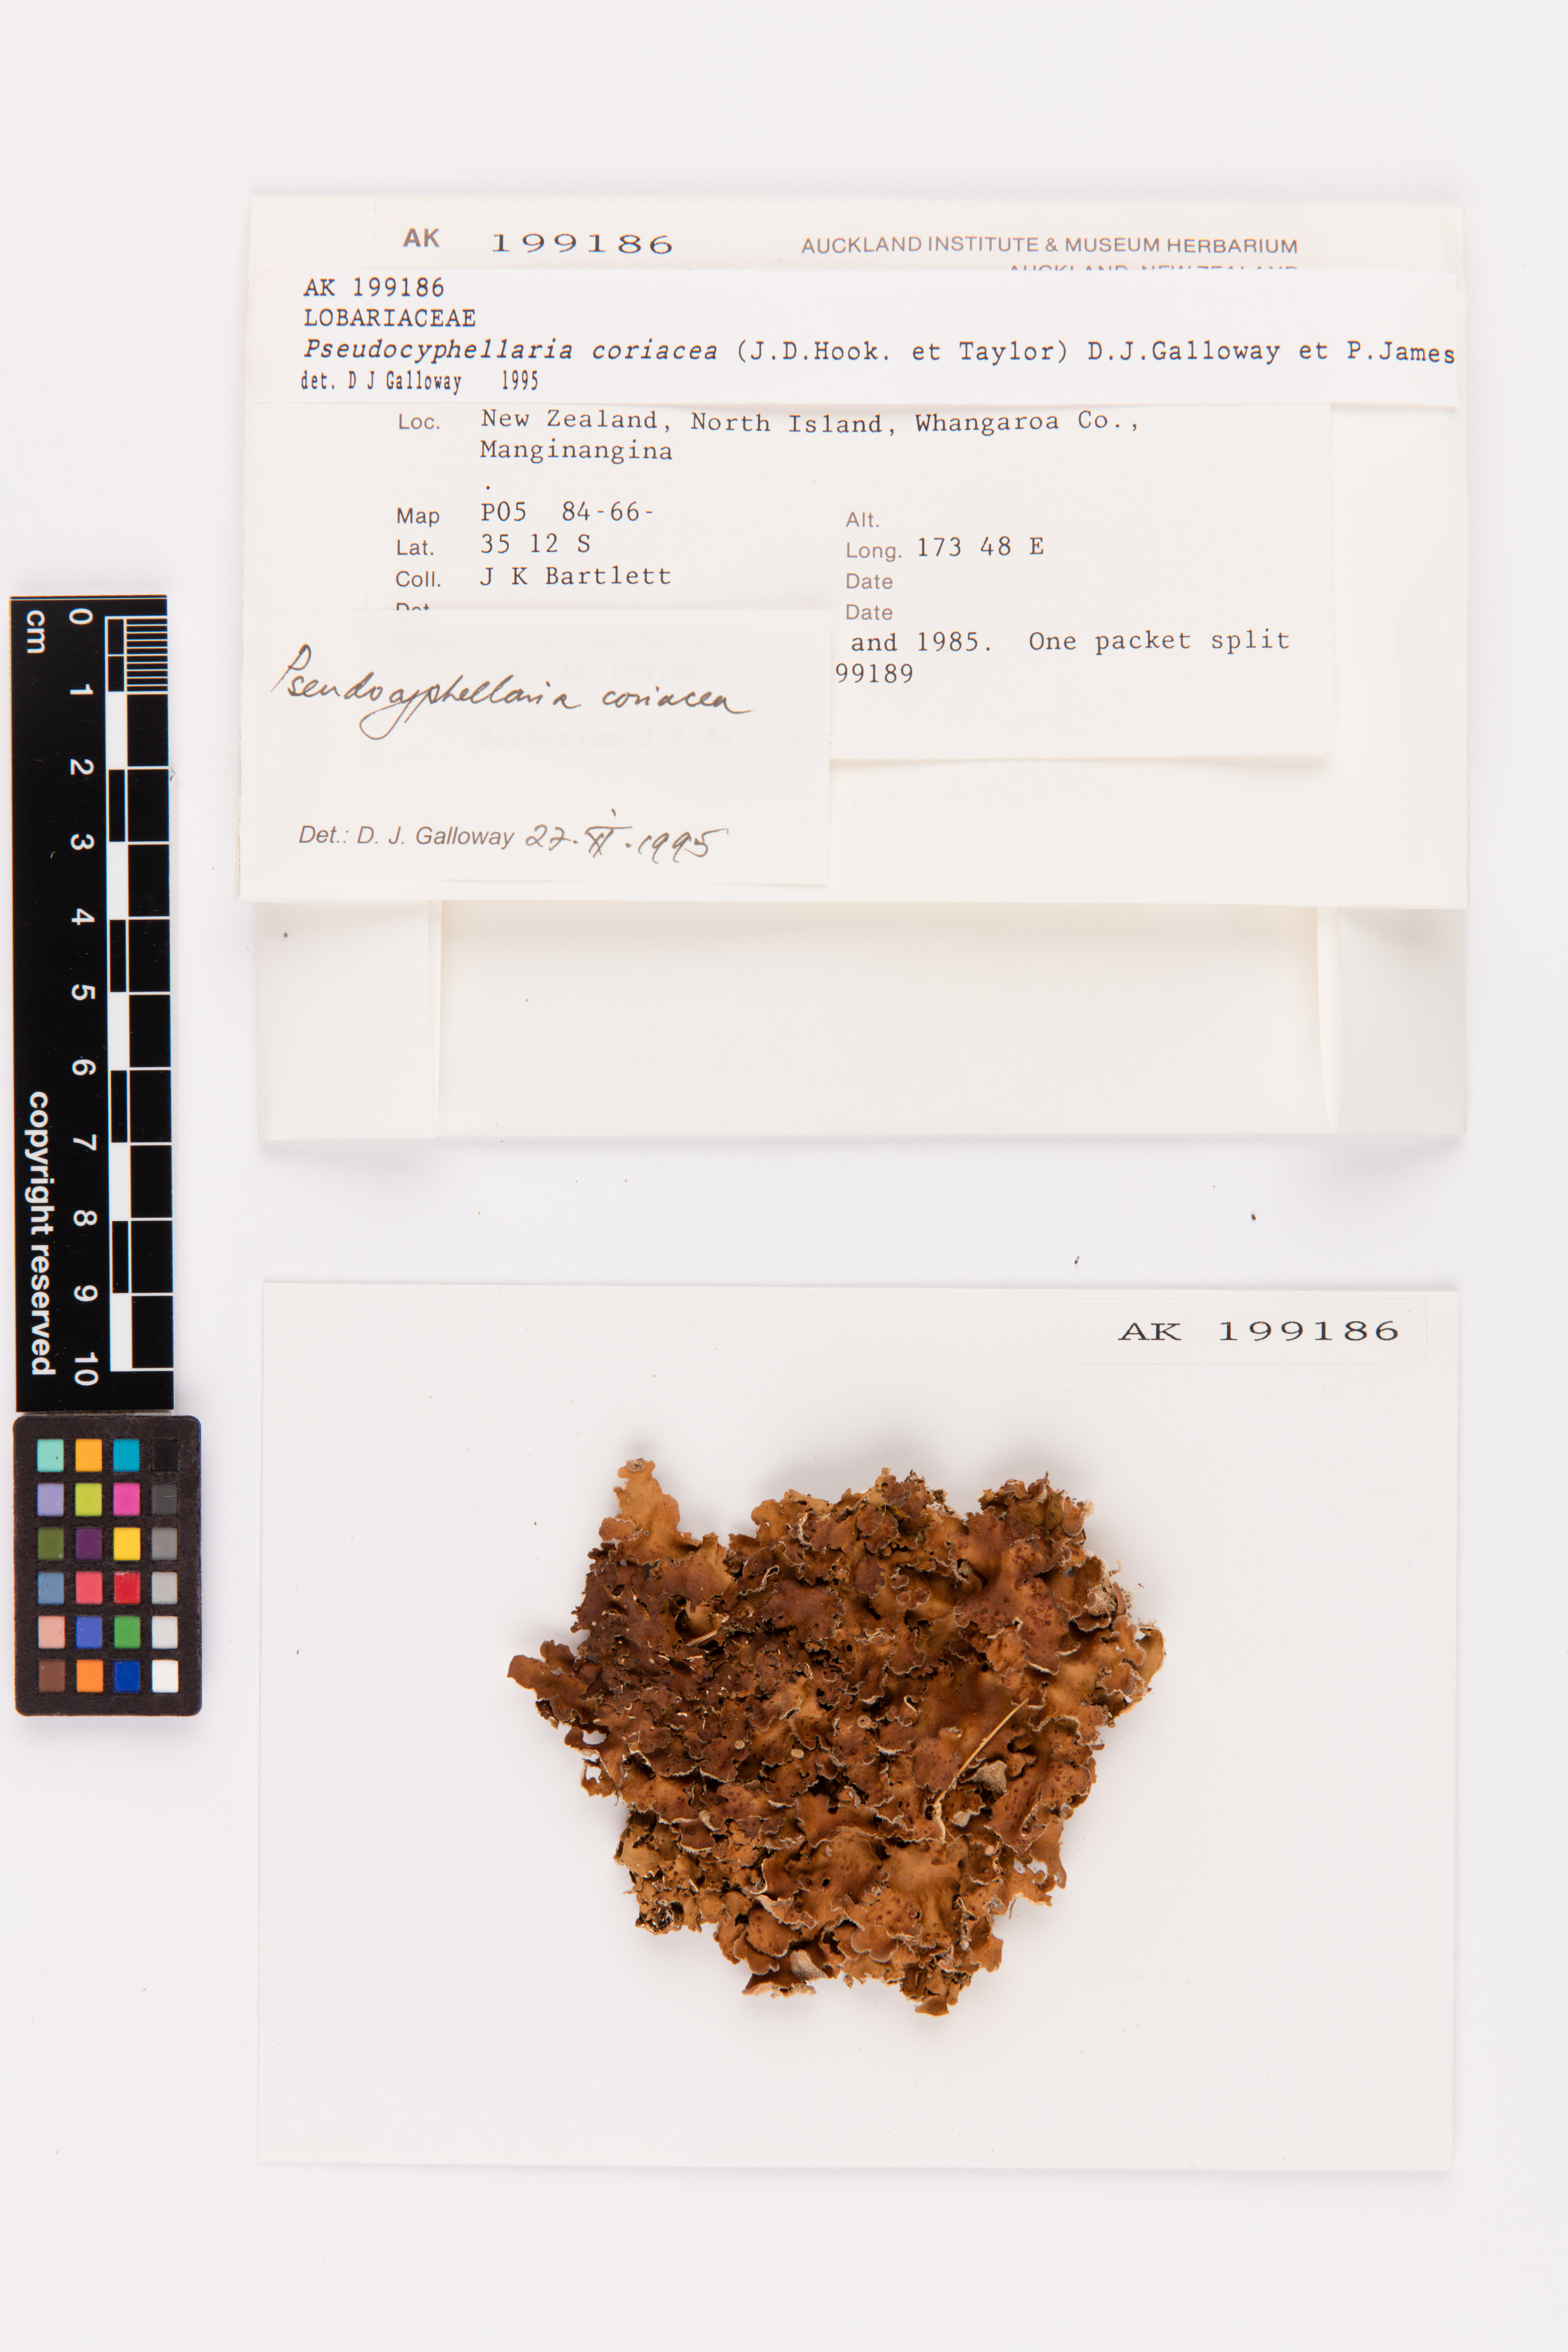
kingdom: Fungi
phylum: Ascomycota
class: Lecanoromycetes
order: Peltigerales
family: Lobariaceae
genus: Pseudocyphellaria
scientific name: Pseudocyphellaria coriacea
